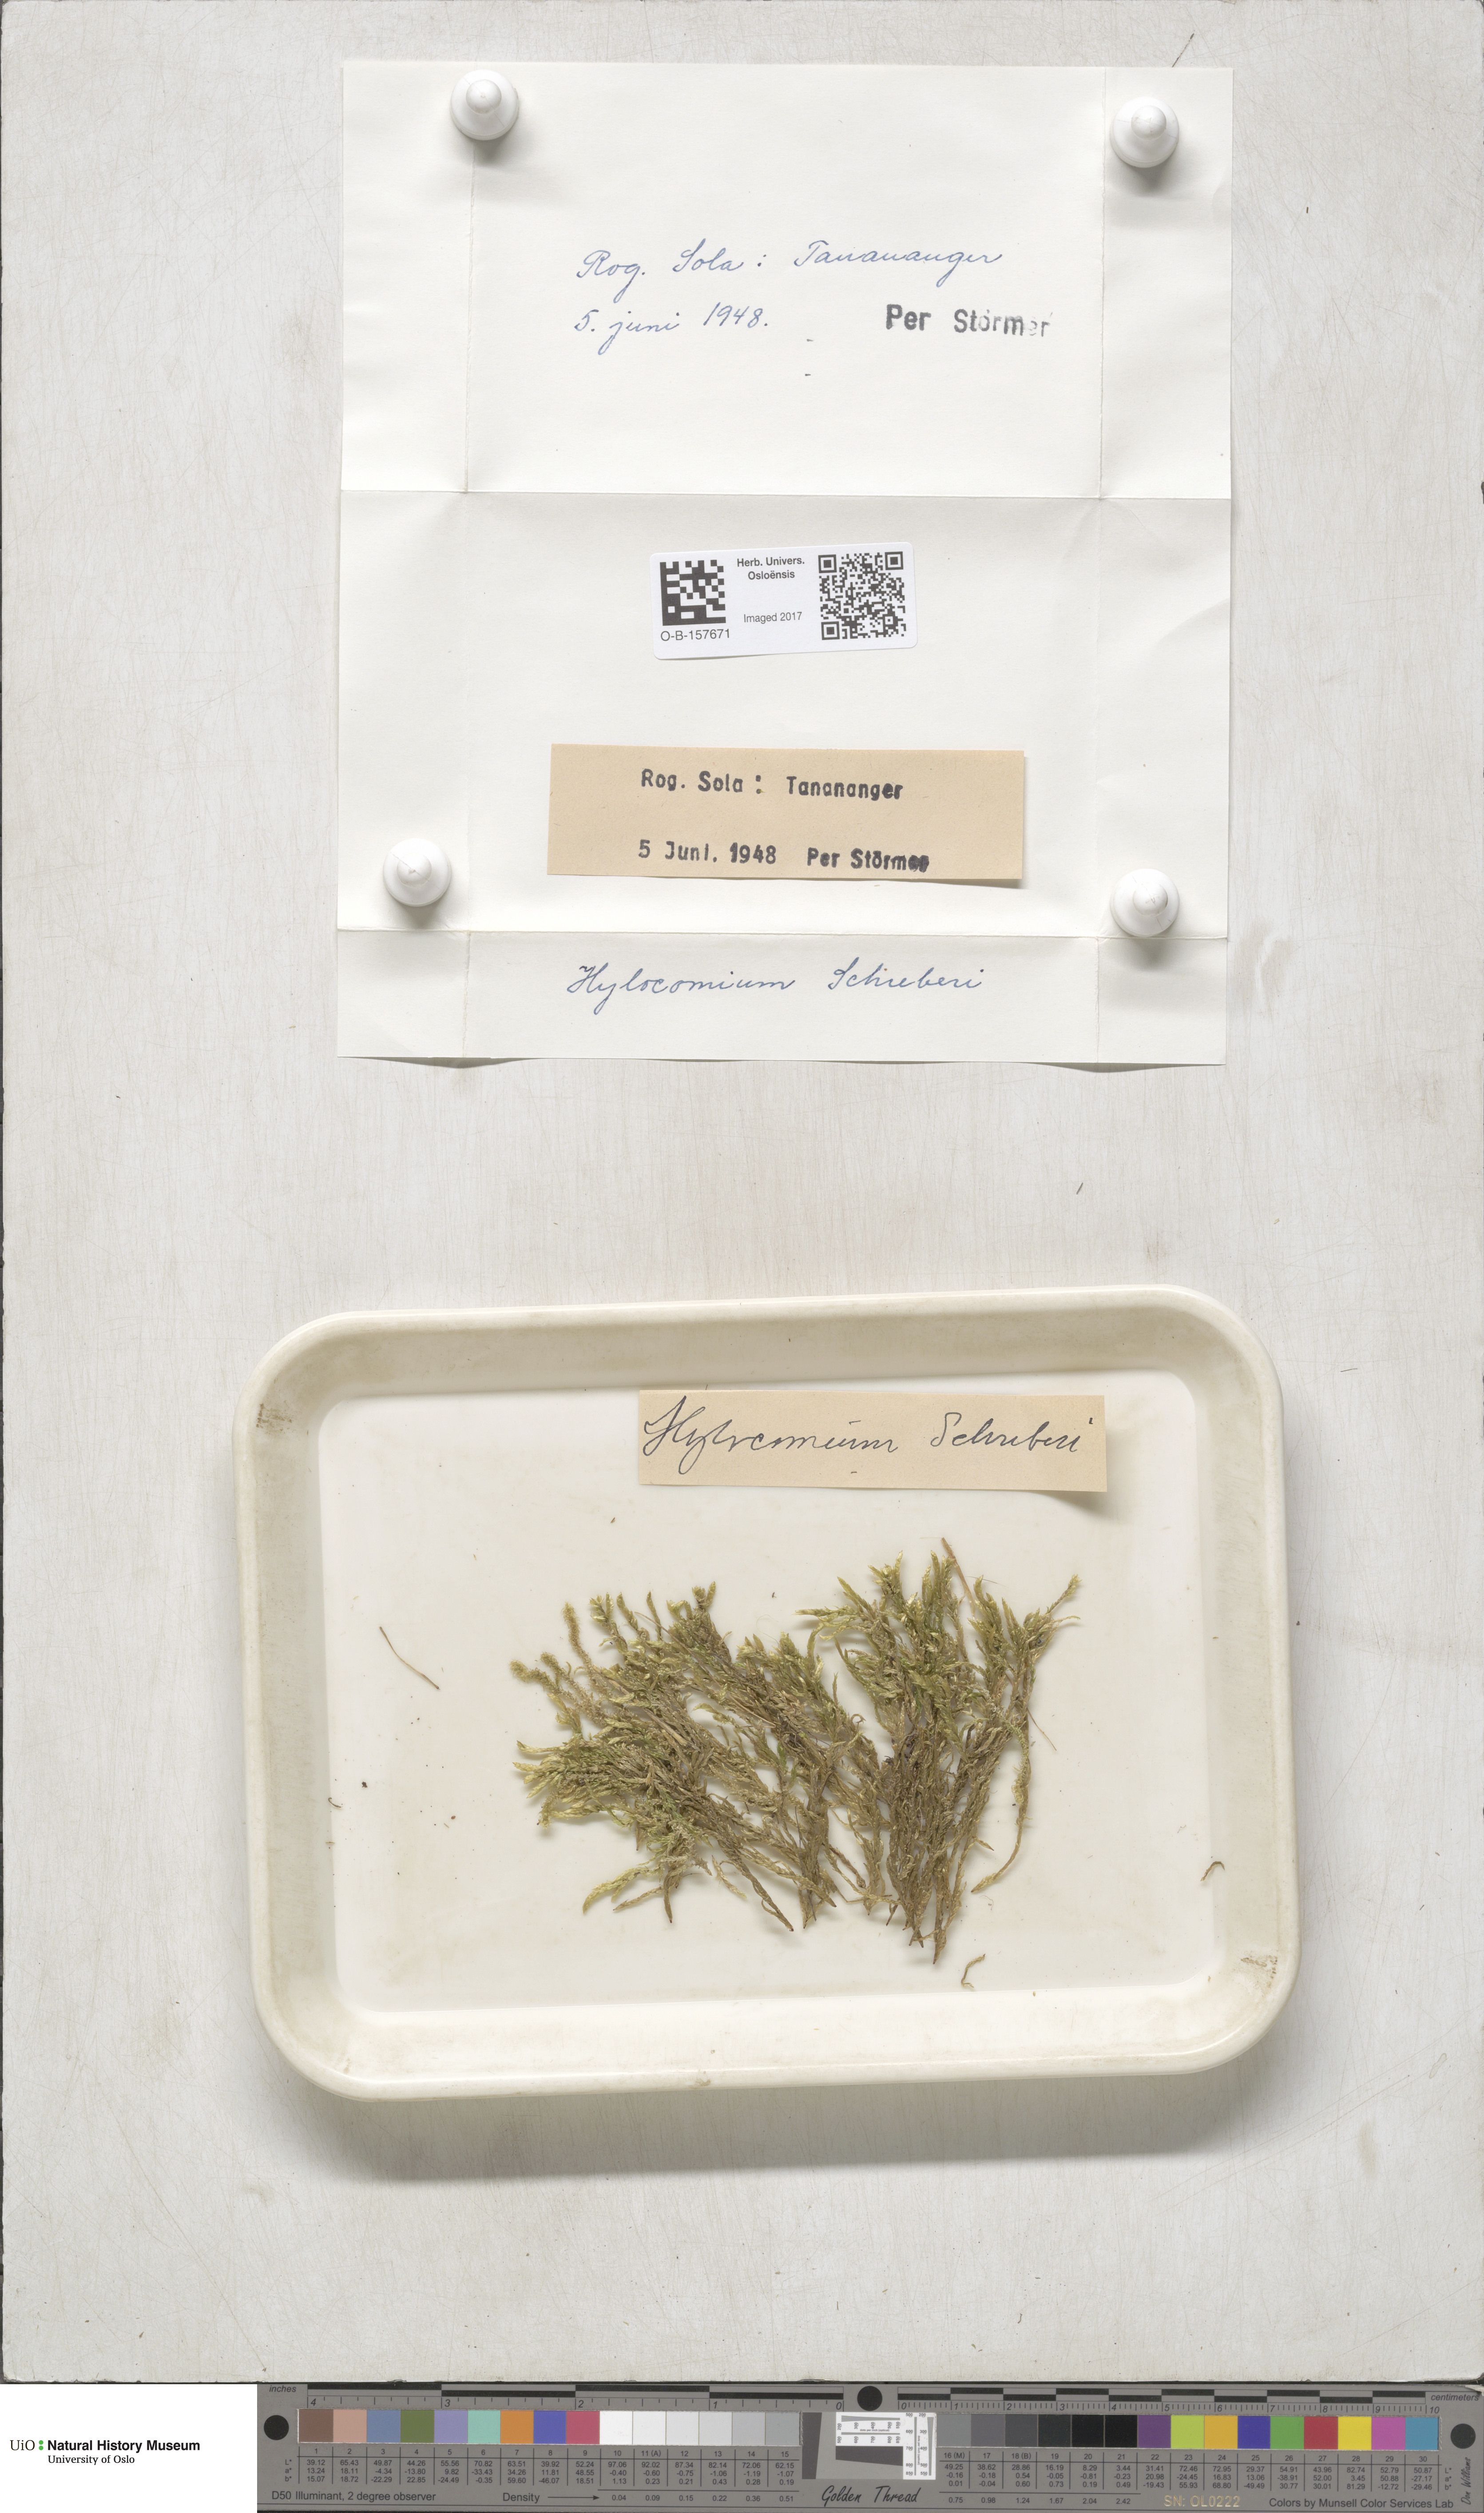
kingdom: Plantae
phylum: Bryophyta
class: Bryopsida
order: Hypnales
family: Hylocomiaceae
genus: Pleurozium
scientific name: Pleurozium schreberi
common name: Red-stemmed feather moss
